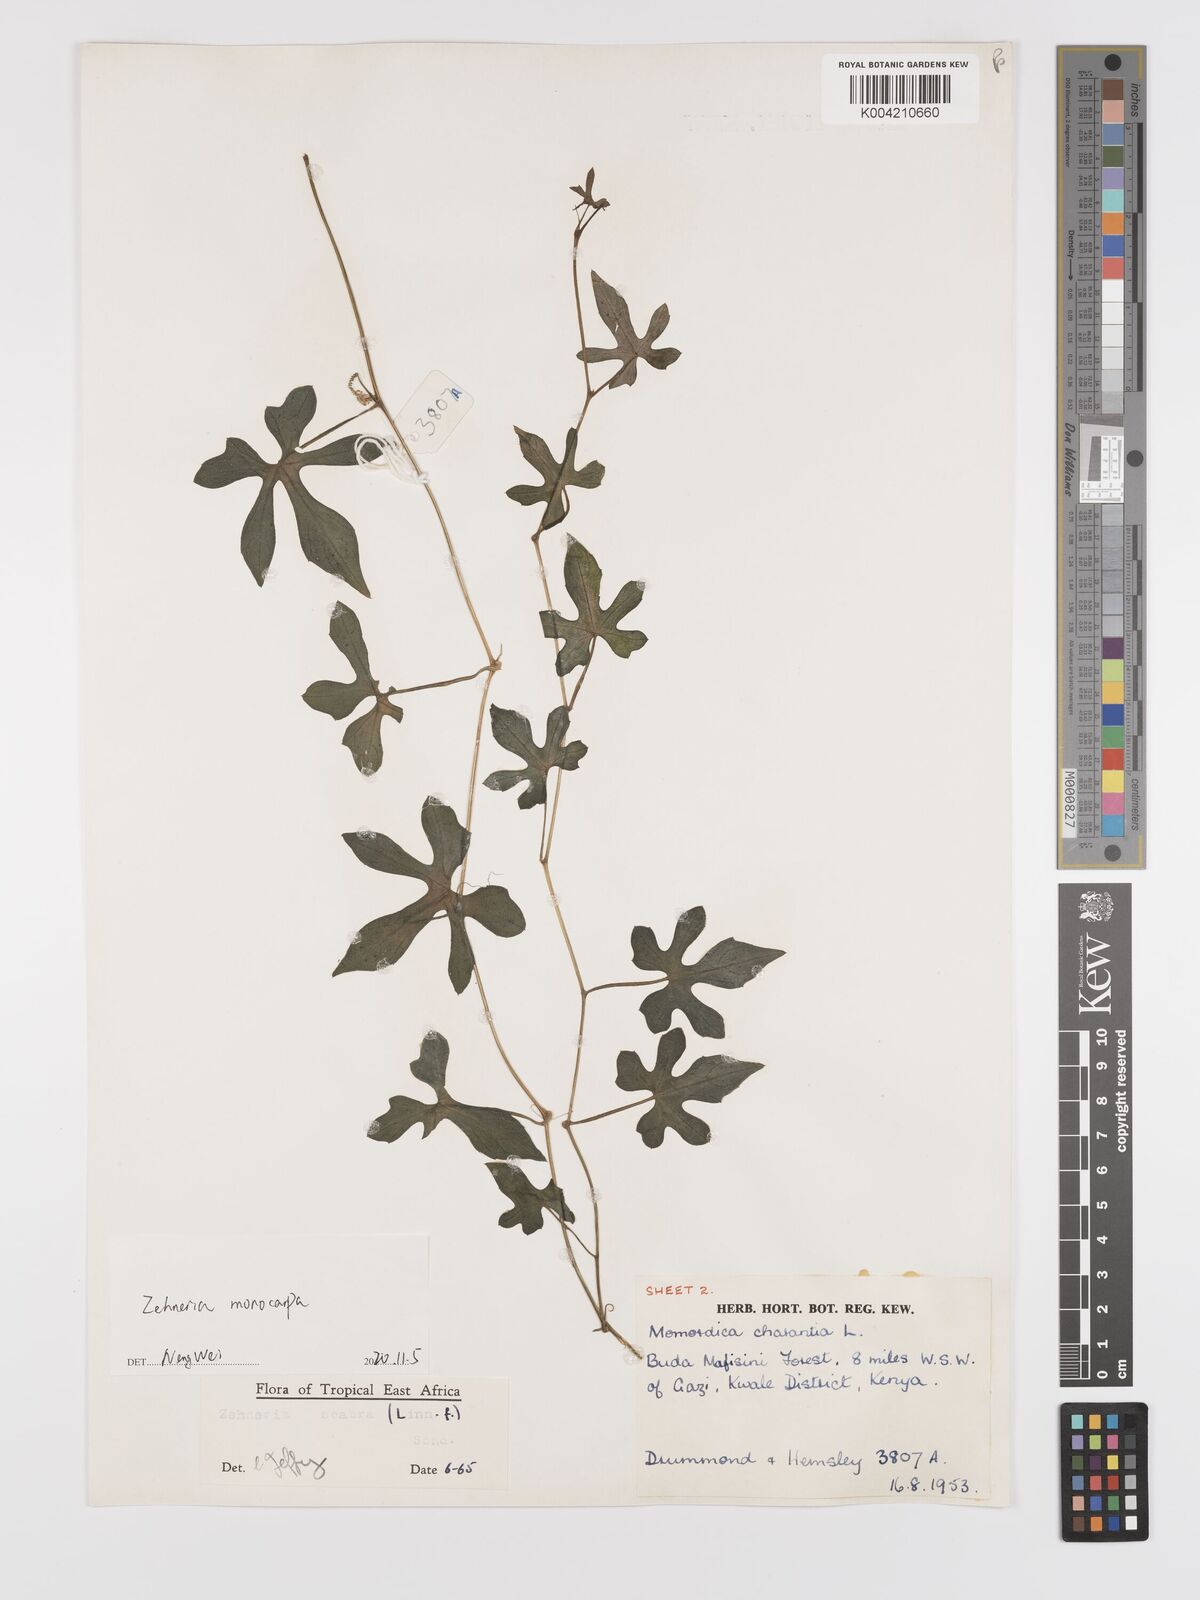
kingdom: Plantae
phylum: Tracheophyta
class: Magnoliopsida
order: Cucurbitales
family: Cucurbitaceae
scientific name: Cucurbitaceae
